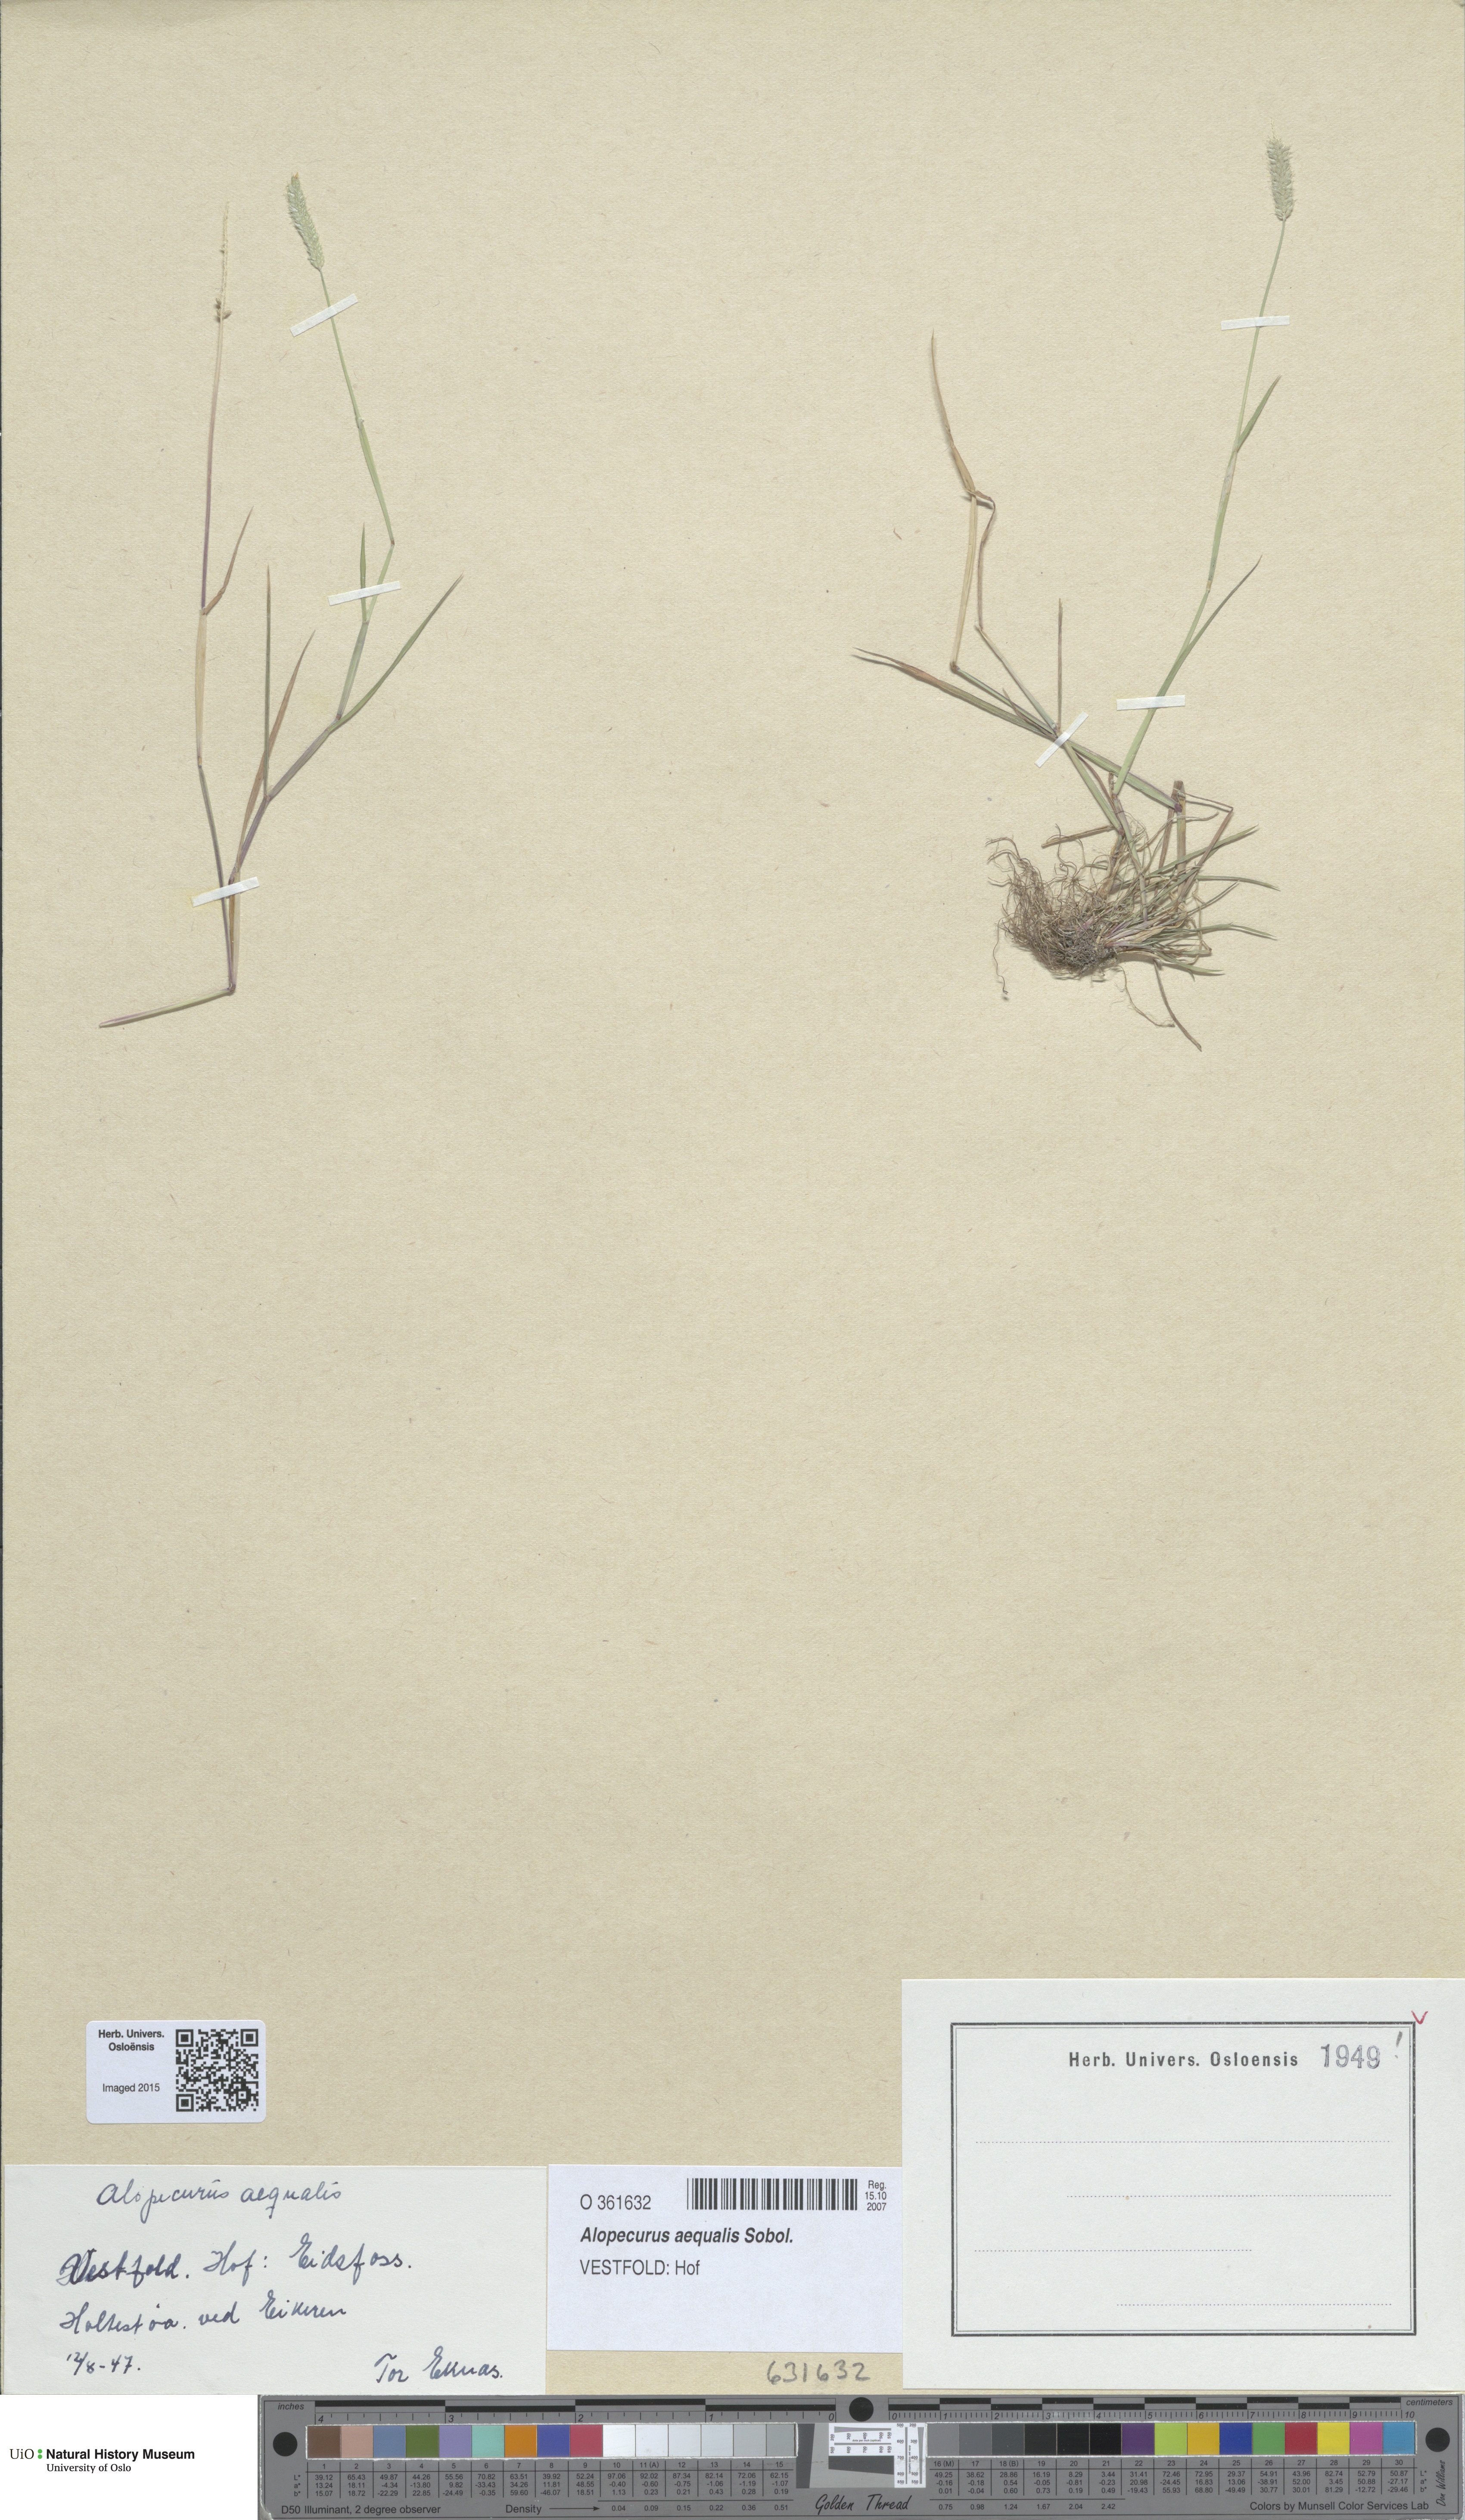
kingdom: Plantae
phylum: Tracheophyta
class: Liliopsida
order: Poales
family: Poaceae
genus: Alopecurus
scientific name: Alopecurus aequalis
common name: Orange foxtail
